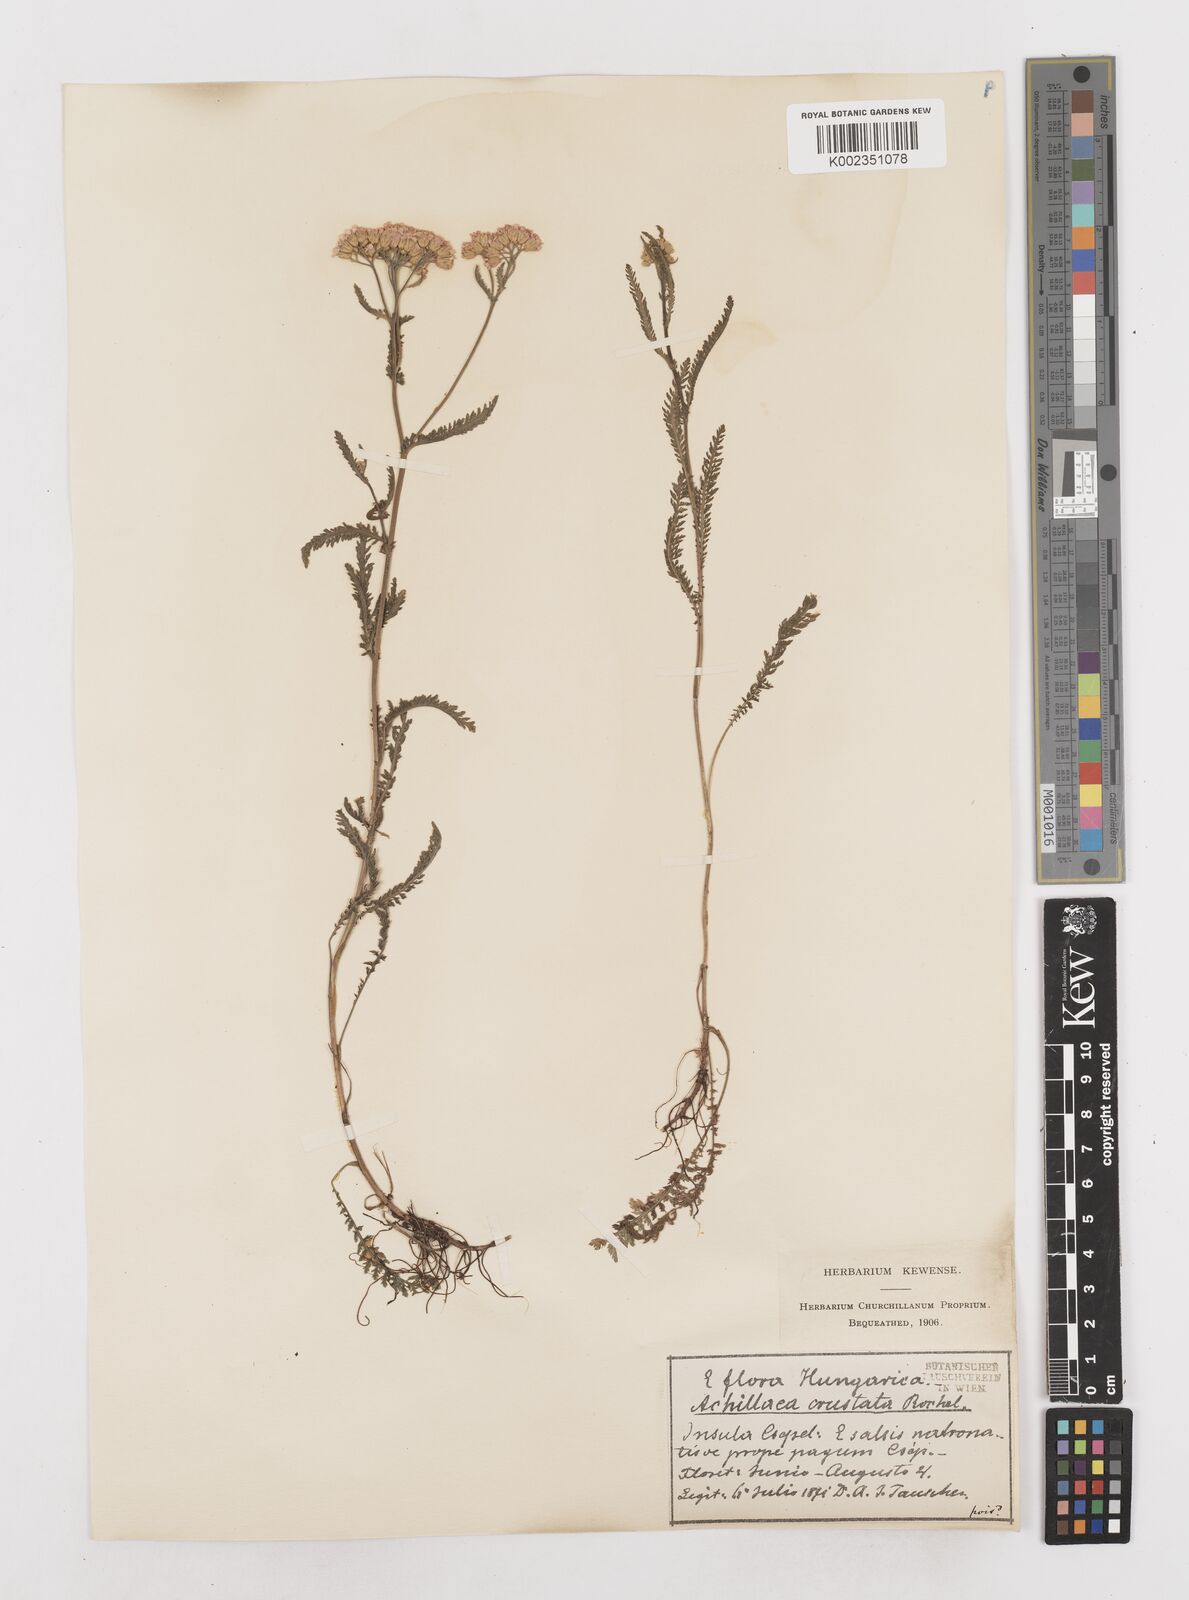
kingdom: Plantae
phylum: Tracheophyta
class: Magnoliopsida
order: Asterales
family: Asteraceae
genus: Achillea
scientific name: Achillea millefolium
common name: Yarrow
